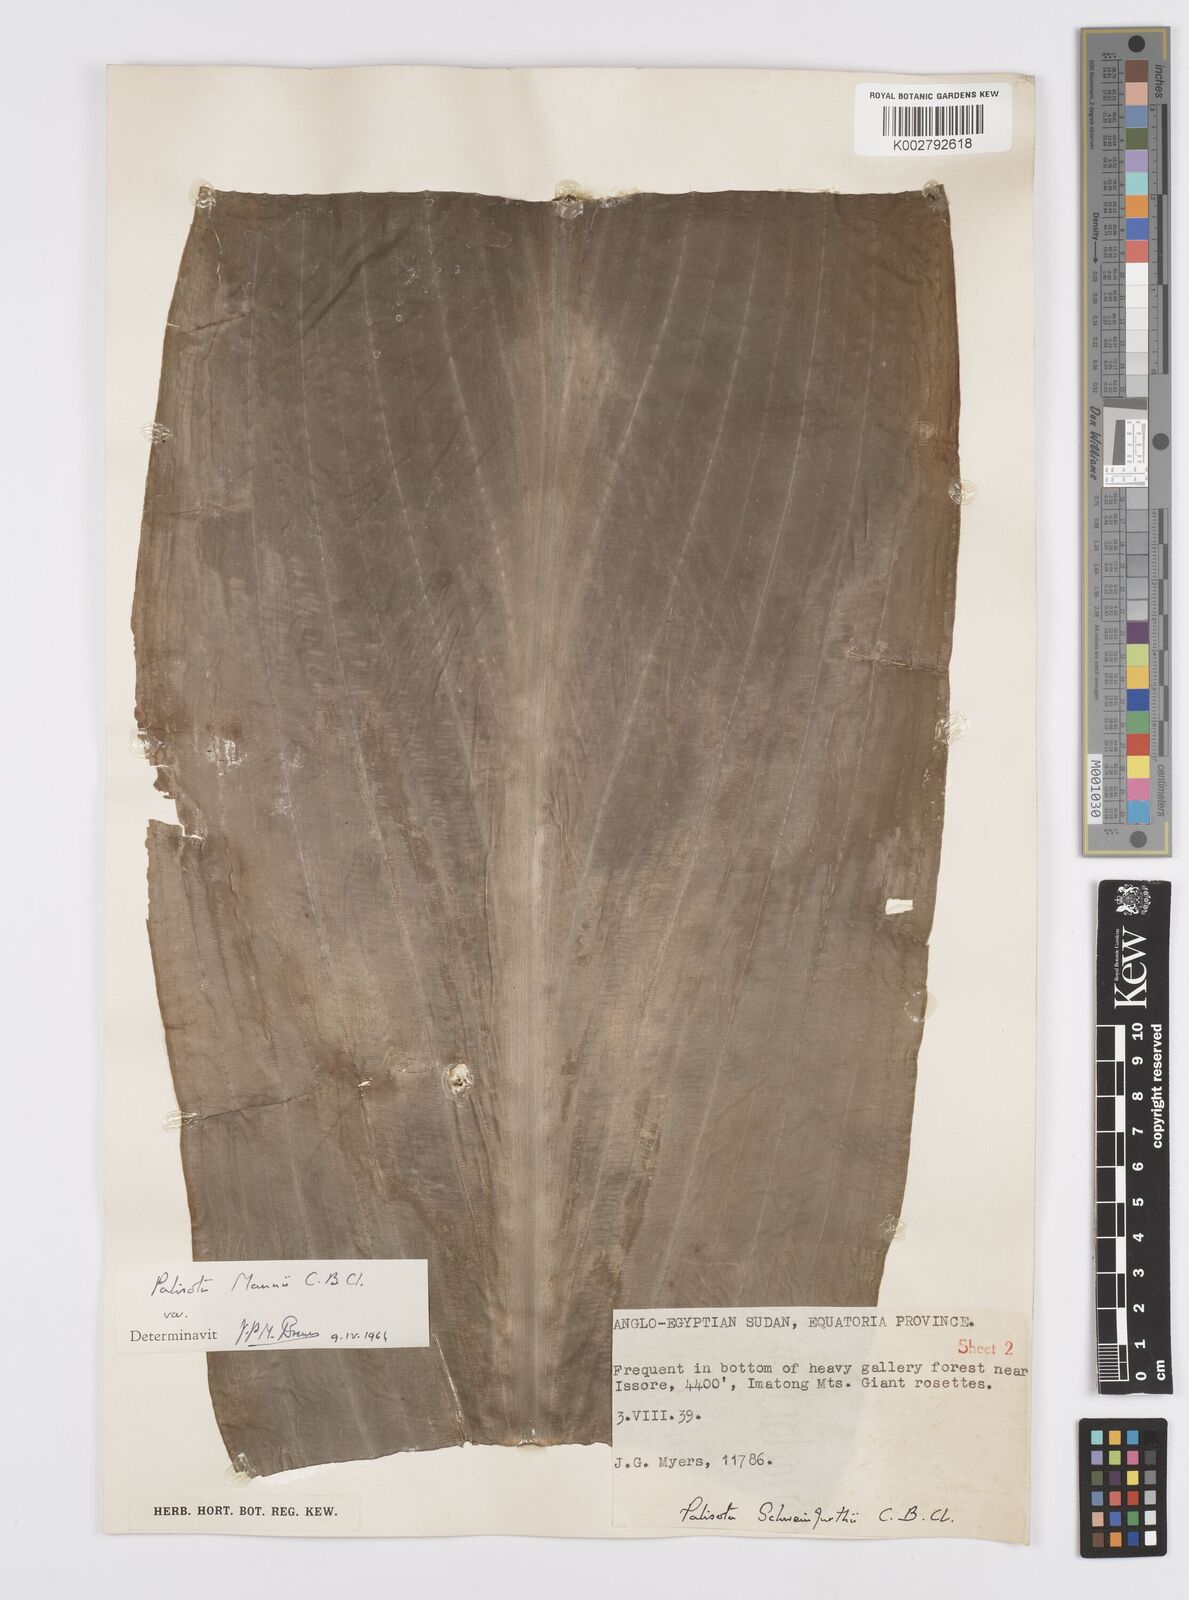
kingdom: Plantae
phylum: Tracheophyta
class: Liliopsida
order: Commelinales
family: Commelinaceae
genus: Palisota
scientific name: Palisota mannii
